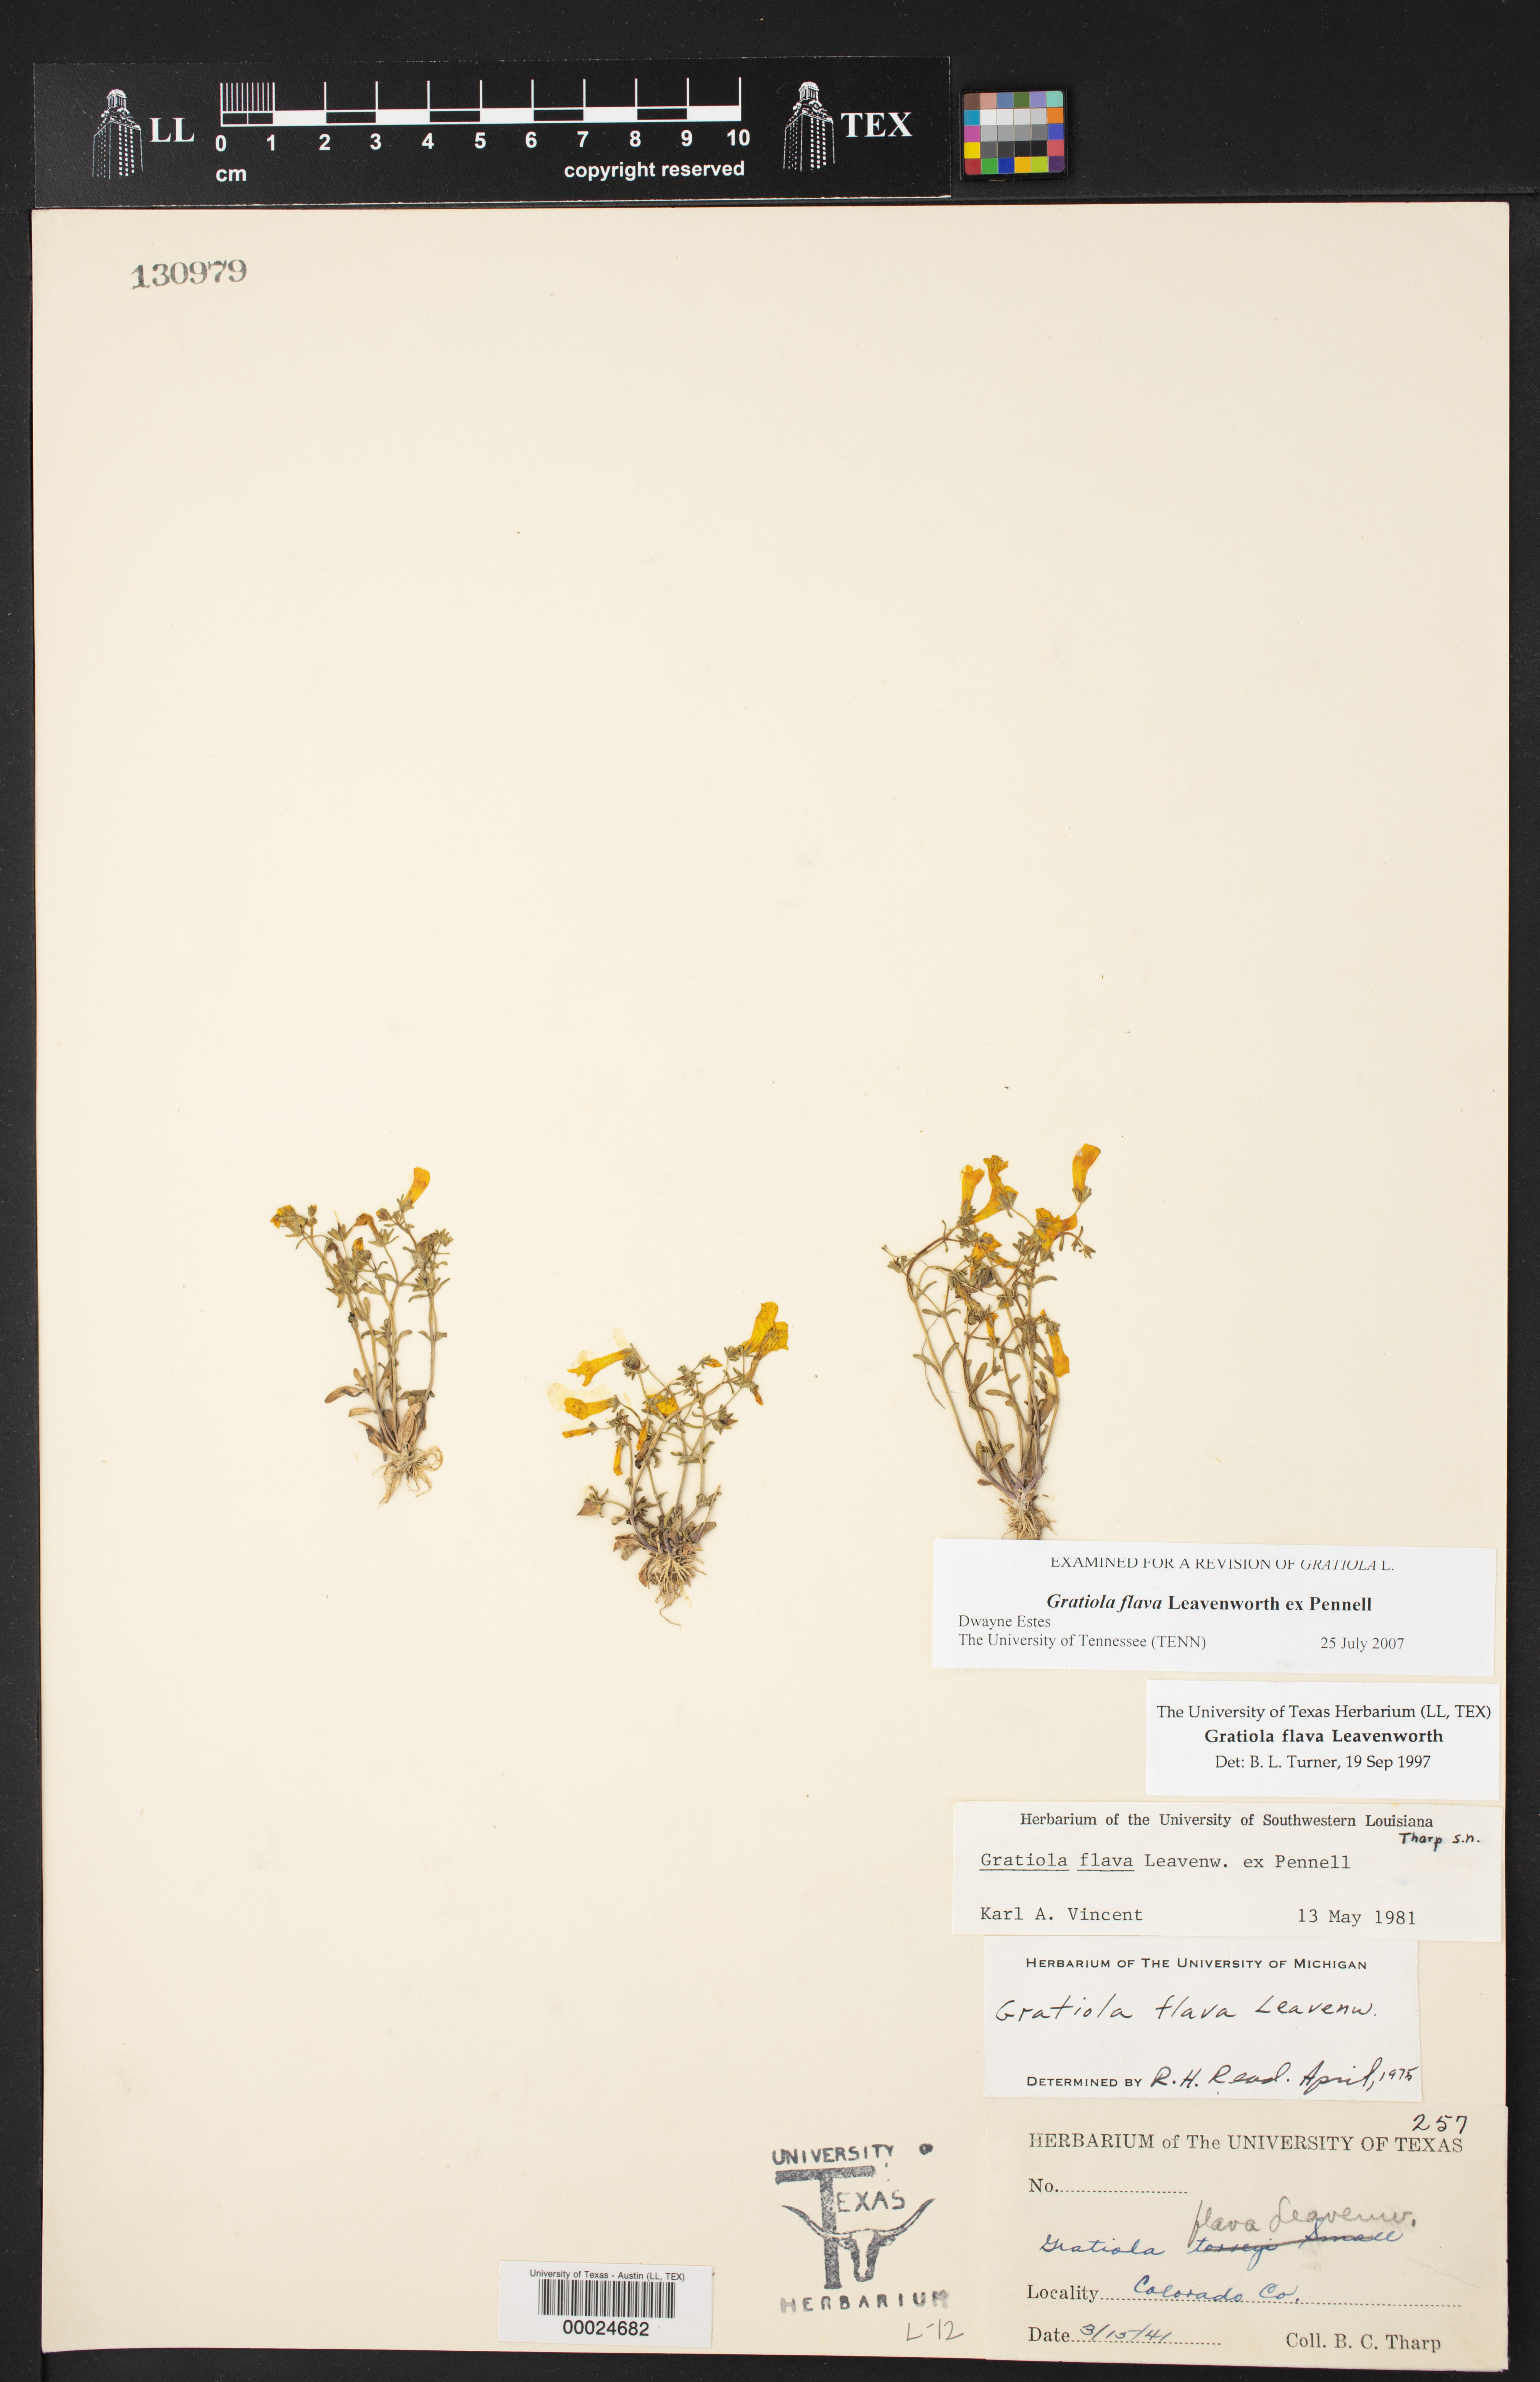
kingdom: Plantae
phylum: Tracheophyta
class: Magnoliopsida
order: Lamiales
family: Plantaginaceae
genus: Gratiola
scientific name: Gratiola flava
